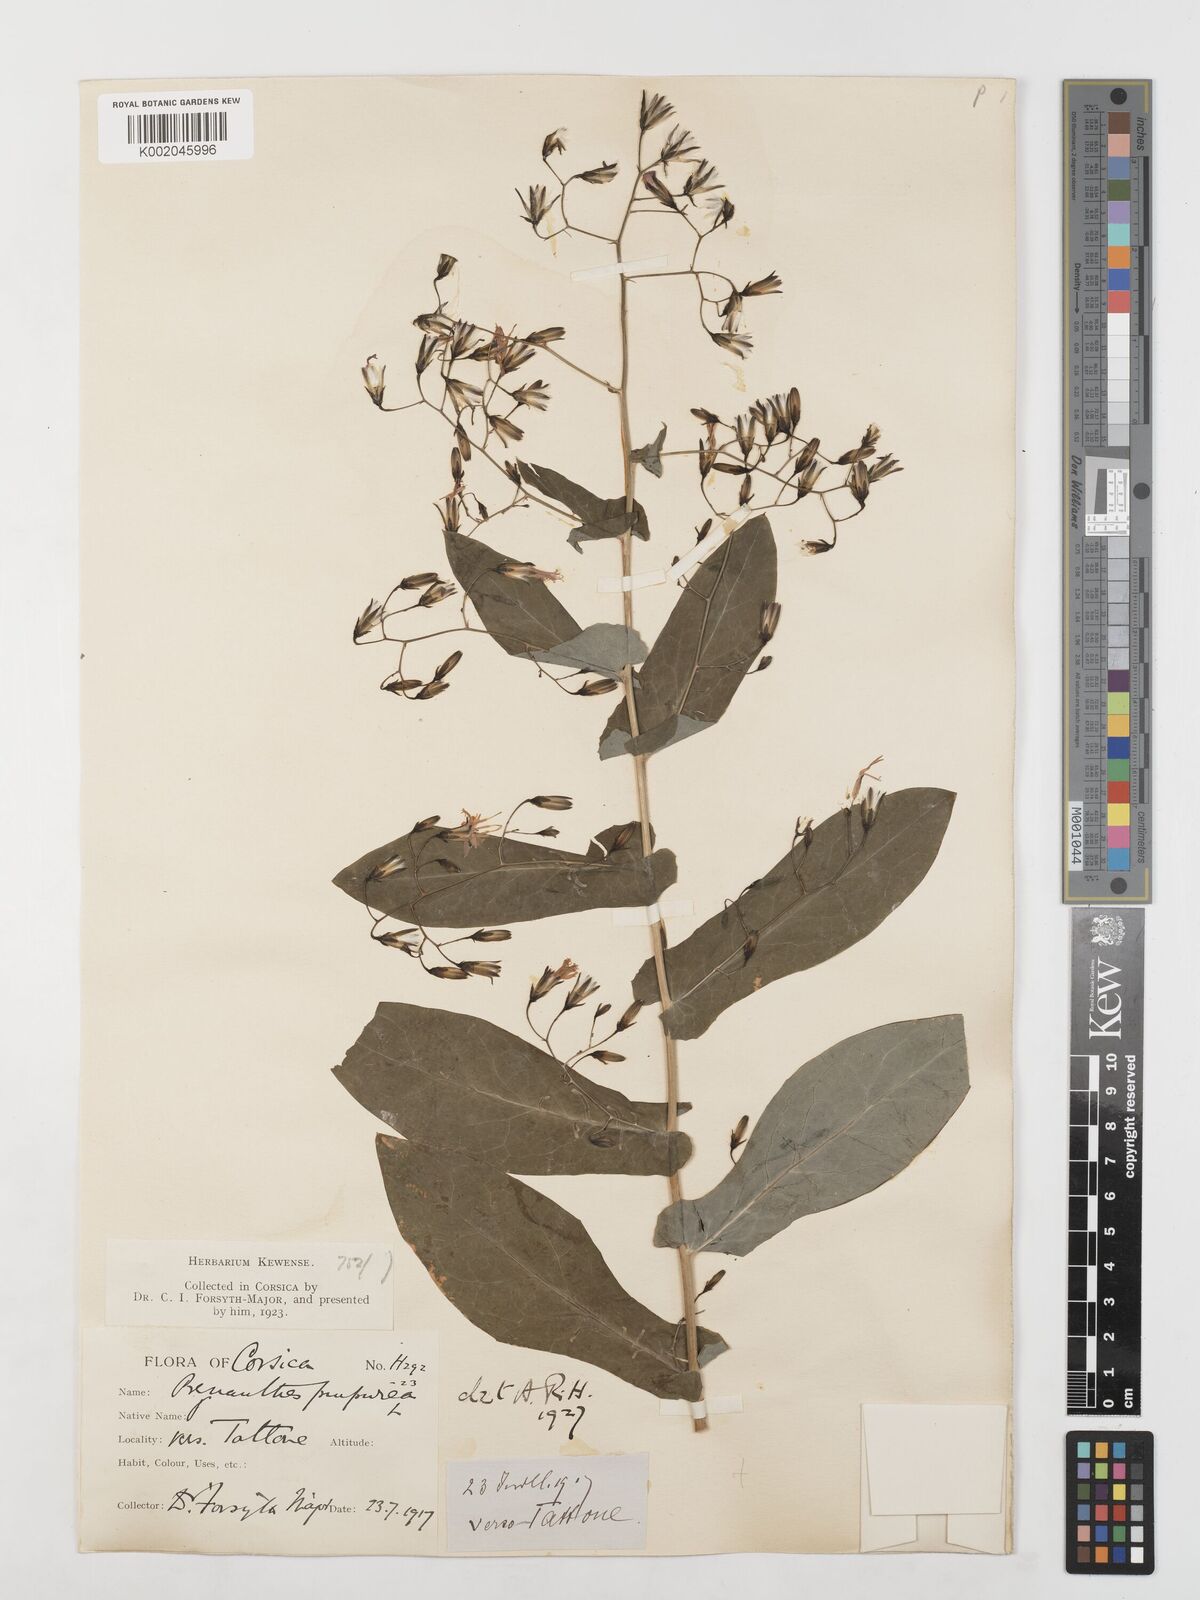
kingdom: Plantae
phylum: Tracheophyta
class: Magnoliopsida
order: Asterales
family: Asteraceae
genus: Prenanthes
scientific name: Prenanthes purpurea
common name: Purple lettuce
